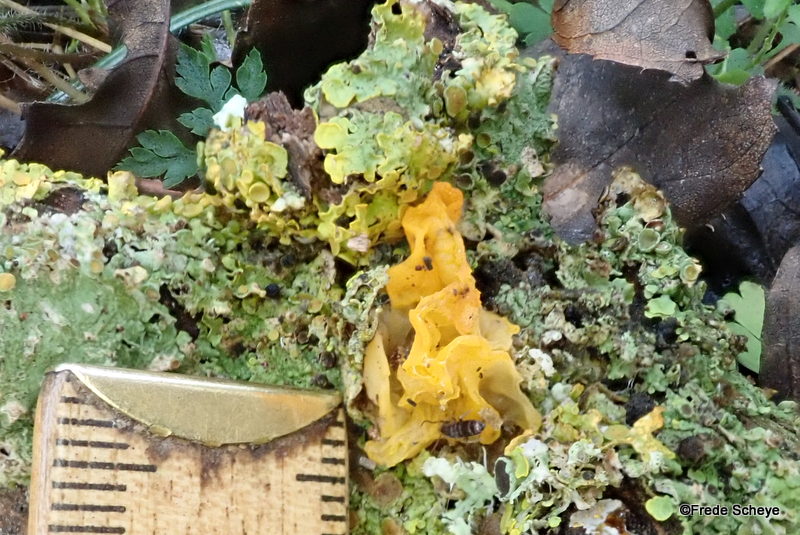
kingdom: Fungi
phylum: Basidiomycota
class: Tremellomycetes
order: Tremellales
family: Tremellaceae
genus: Tremella
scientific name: Tremella mesenterica
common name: gul bævresvamp
